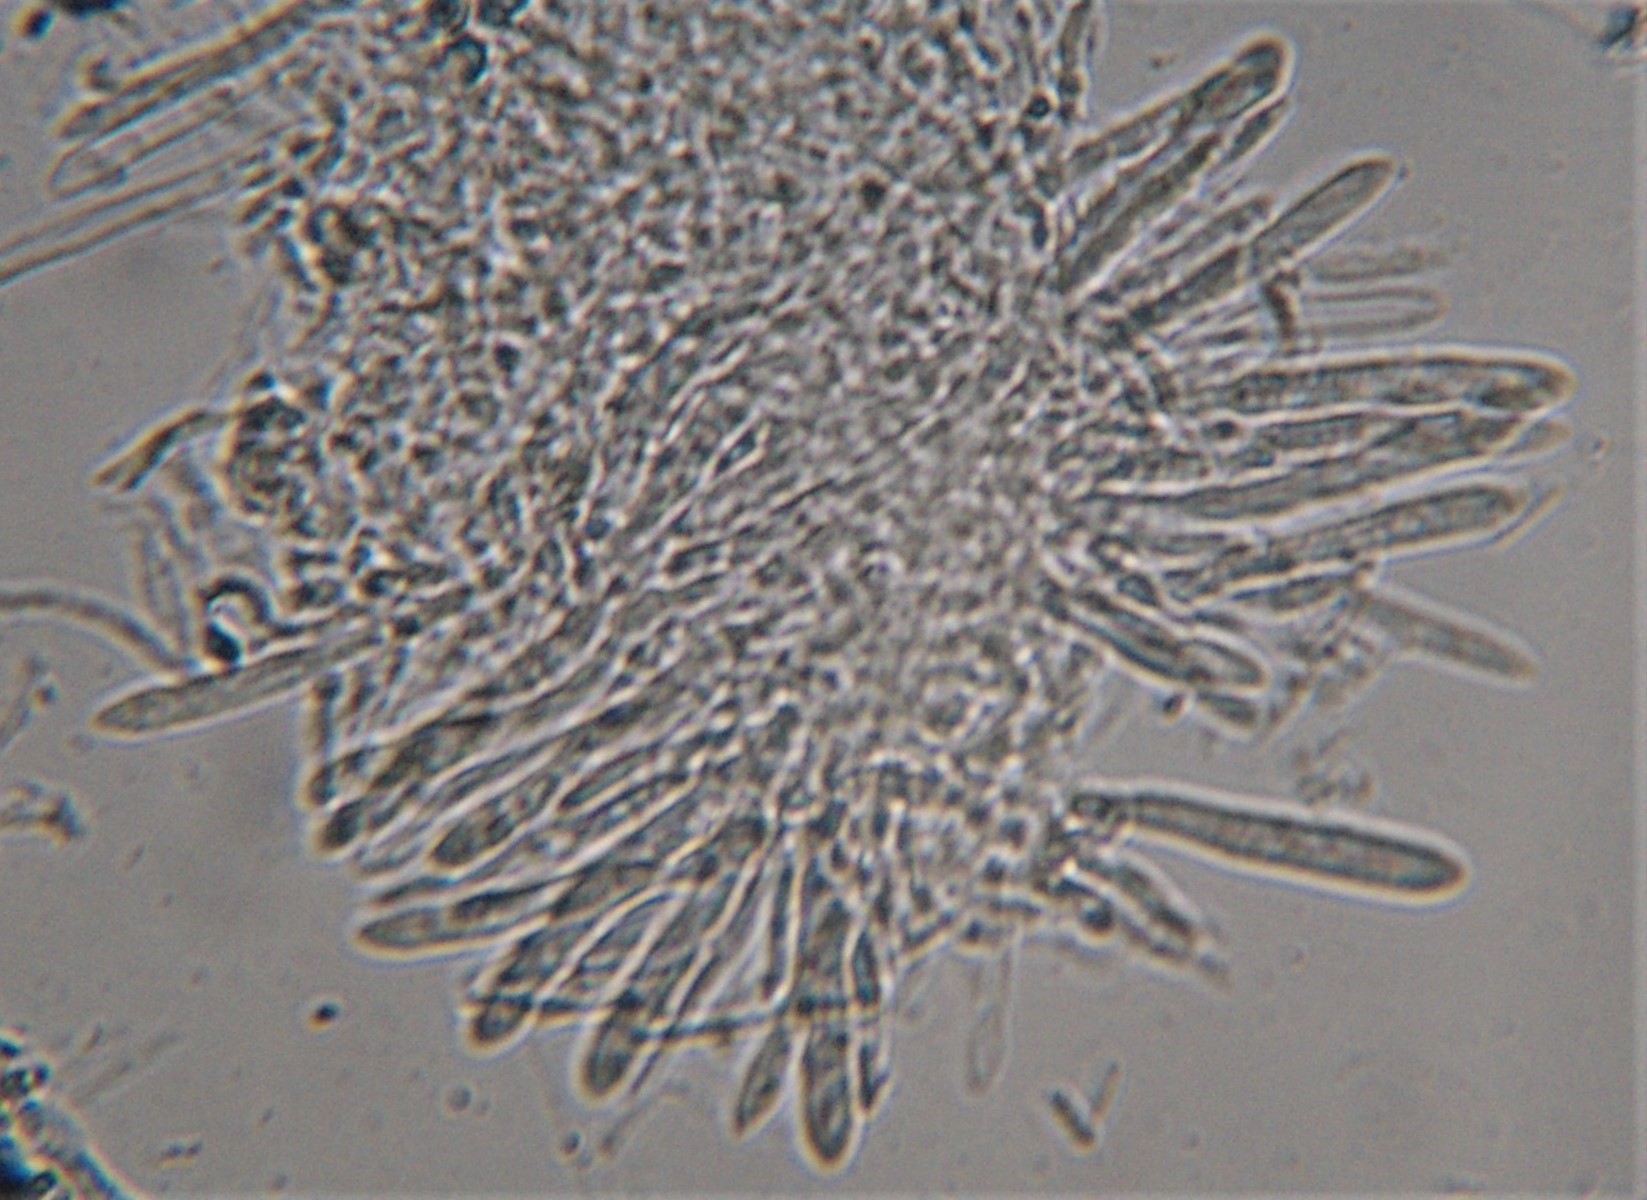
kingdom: Fungi
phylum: Ascomycota
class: Leotiomycetes
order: Helotiales
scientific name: Helotiales
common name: stilkskiveordenen
